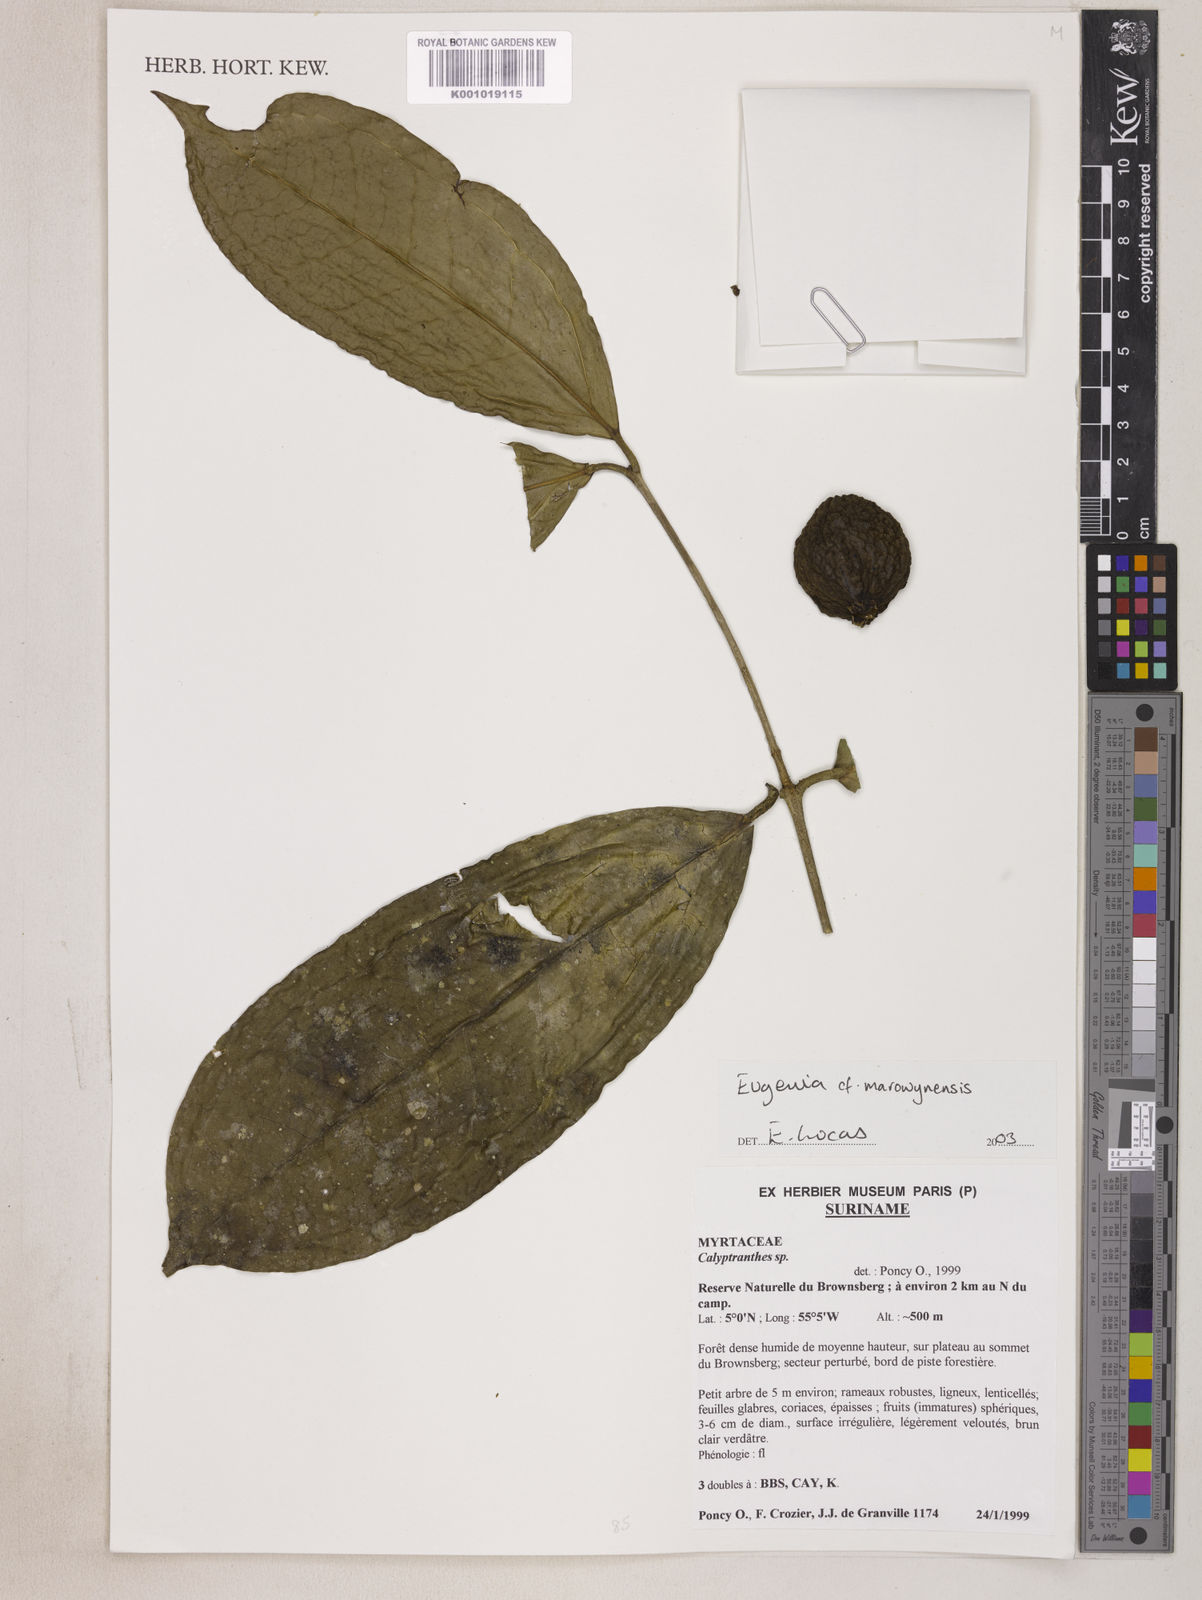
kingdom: Plantae
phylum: Tracheophyta
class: Magnoliopsida
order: Myrtales
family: Myrtaceae
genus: Eugenia
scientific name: Eugenia marowynensis
